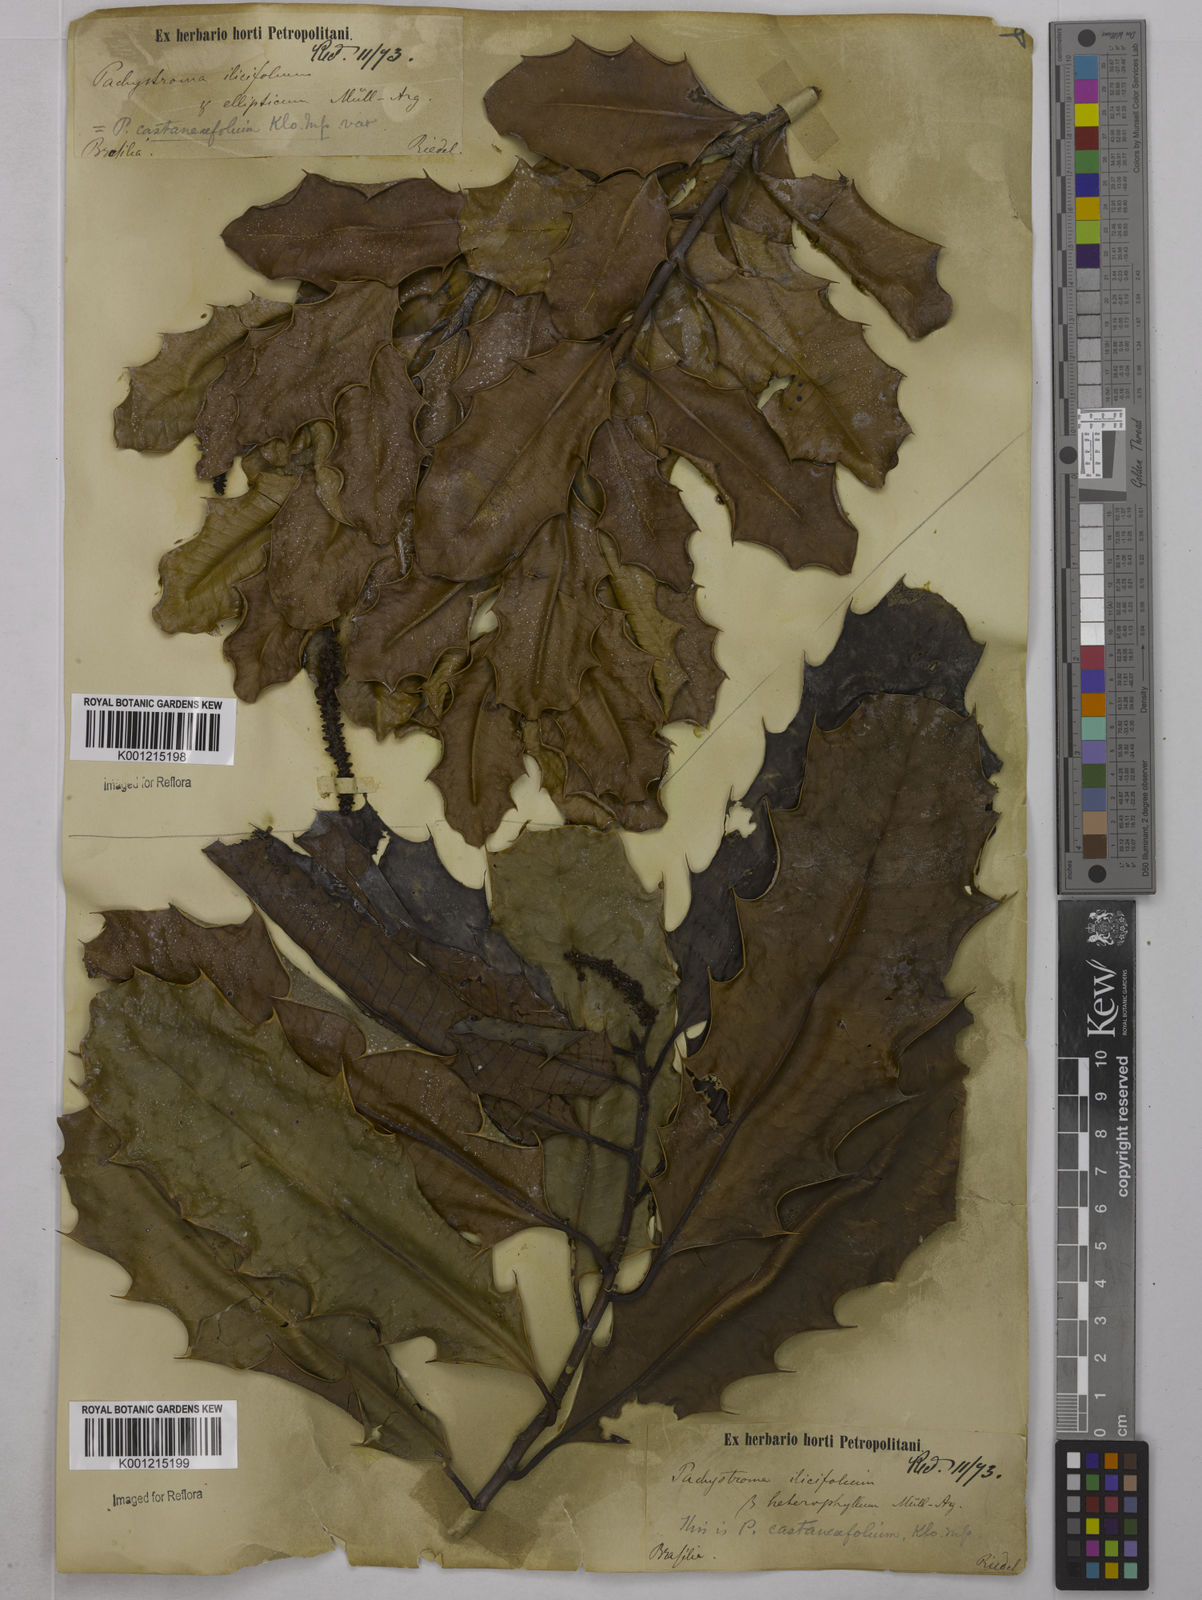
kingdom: Plantae
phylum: Tracheophyta
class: Magnoliopsida
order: Malpighiales
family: Euphorbiaceae
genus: Pachystroma
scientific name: Pachystroma longifolium
